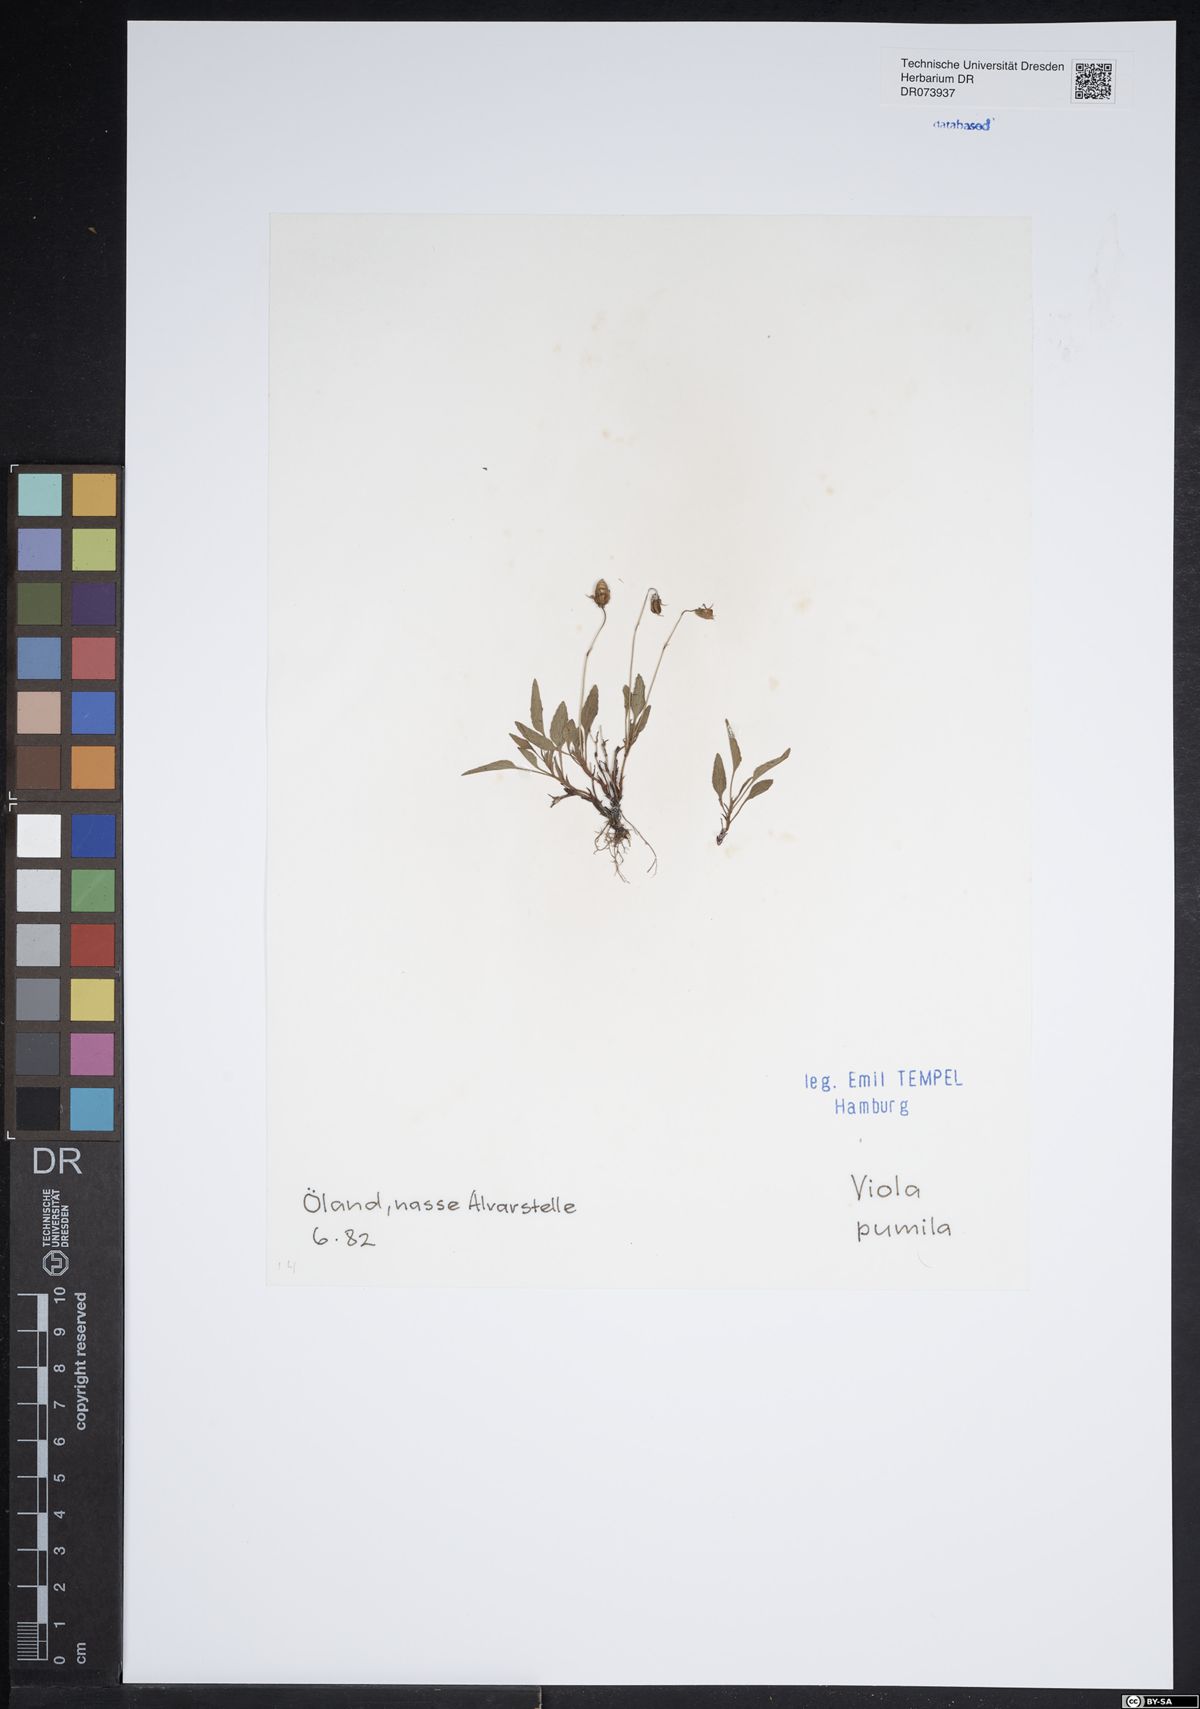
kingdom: Plantae
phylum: Tracheophyta
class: Magnoliopsida
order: Malpighiales
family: Violaceae
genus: Viola
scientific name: Viola pumila
